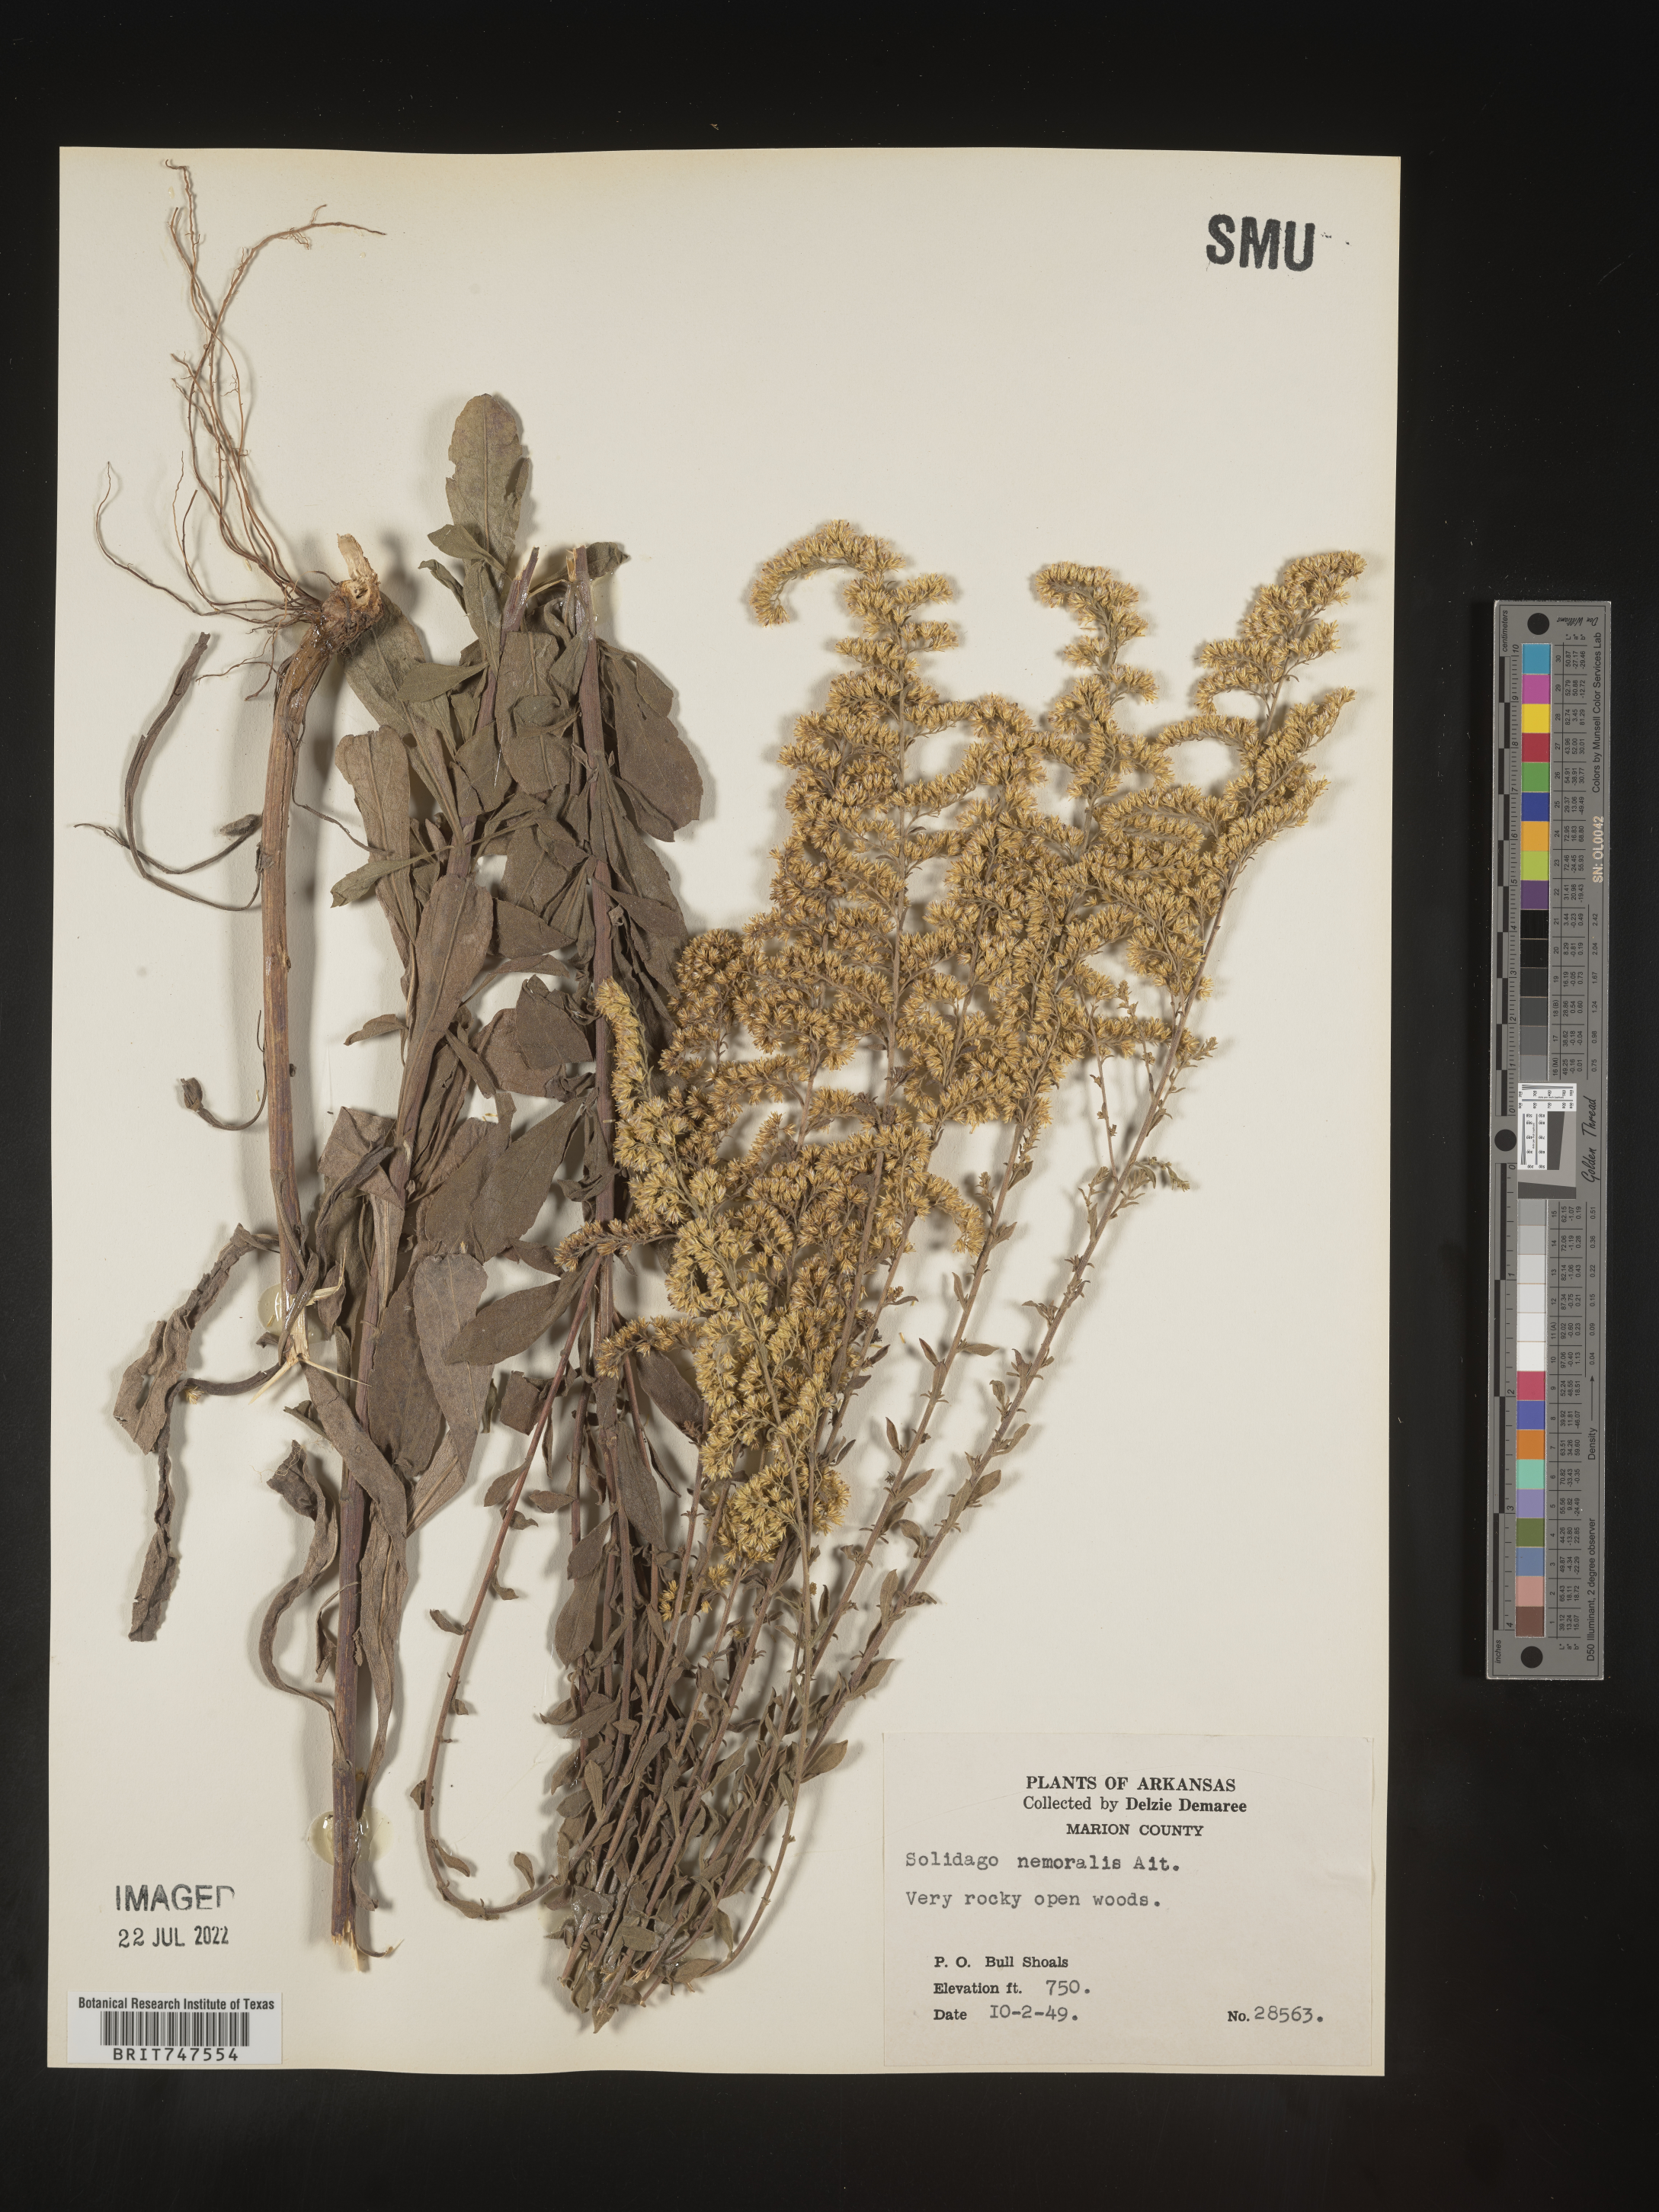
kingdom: Plantae
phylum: Tracheophyta
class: Magnoliopsida
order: Asterales
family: Asteraceae
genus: Solidago
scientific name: Solidago nemoralis
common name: Grey goldenrod
